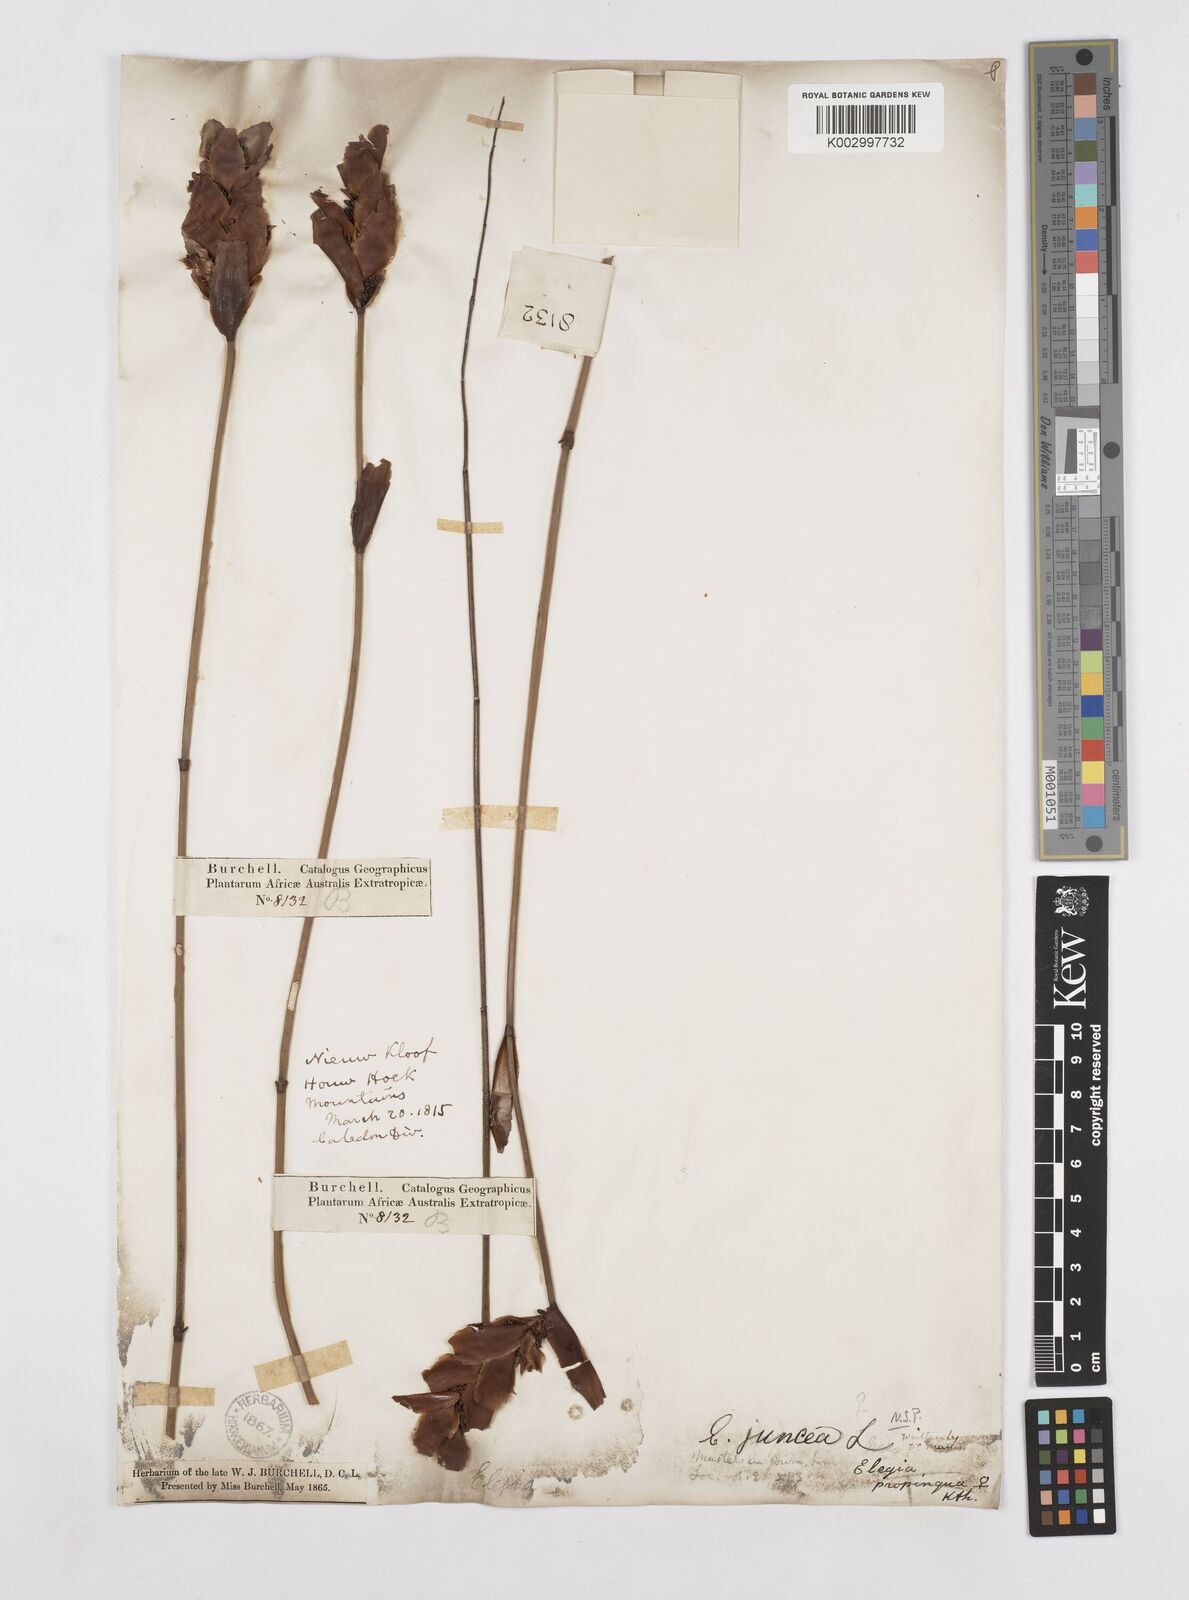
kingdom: Plantae
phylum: Tracheophyta
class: Liliopsida
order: Poales
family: Restionaceae
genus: Elegia
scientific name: Elegia juncea
